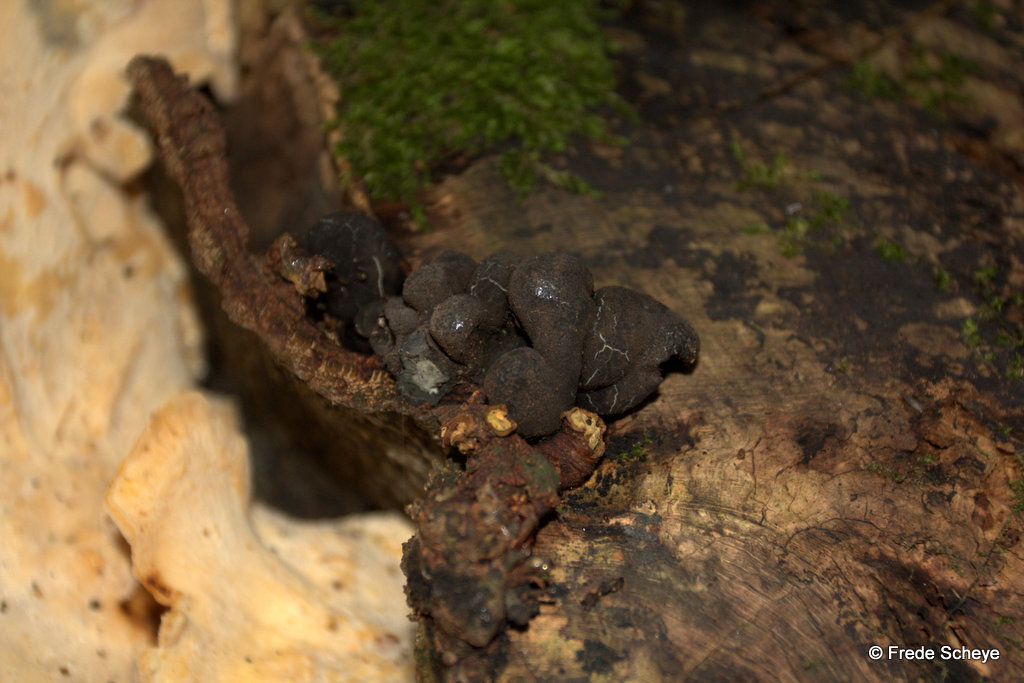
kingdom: Fungi
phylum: Ascomycota
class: Sordariomycetes
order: Xylariales
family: Xylariaceae
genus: Xylaria
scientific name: Xylaria polymorpha
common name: kølle-stødsvamp
